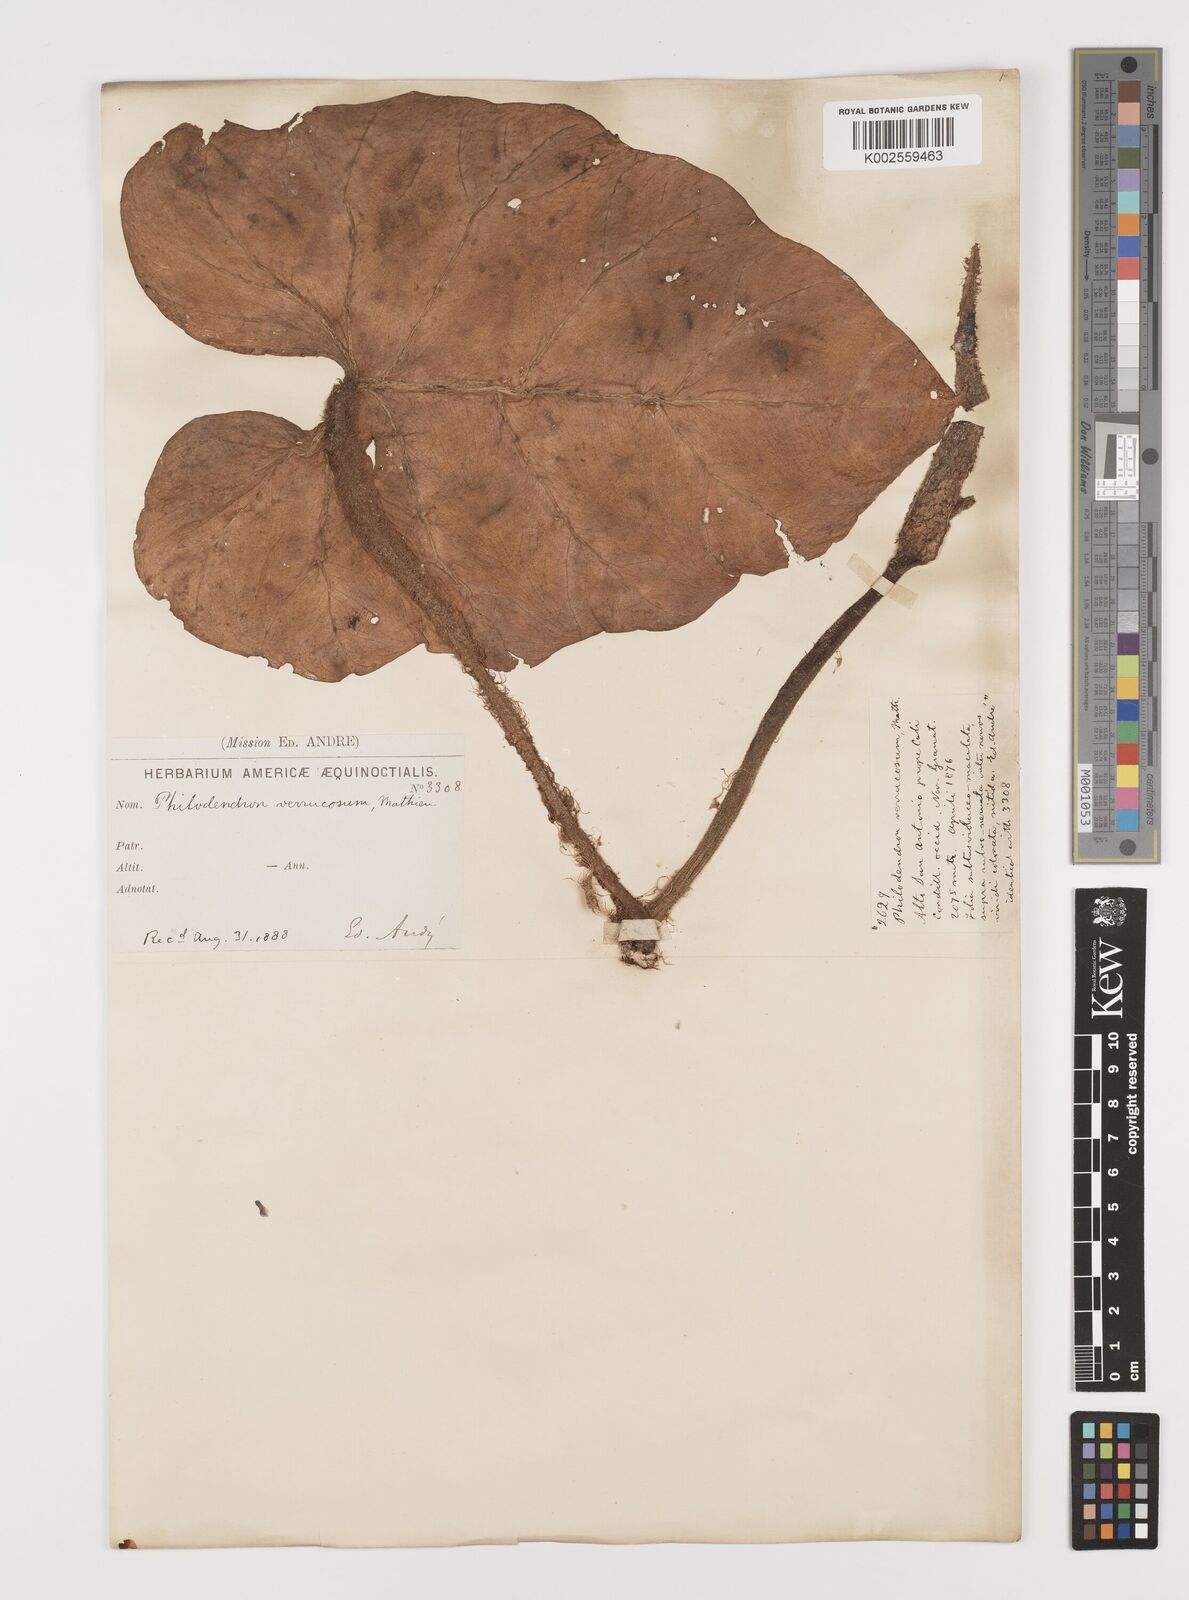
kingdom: Plantae
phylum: Tracheophyta
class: Liliopsida
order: Alismatales
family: Araceae
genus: Philodendron
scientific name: Philodendron verrucosum
